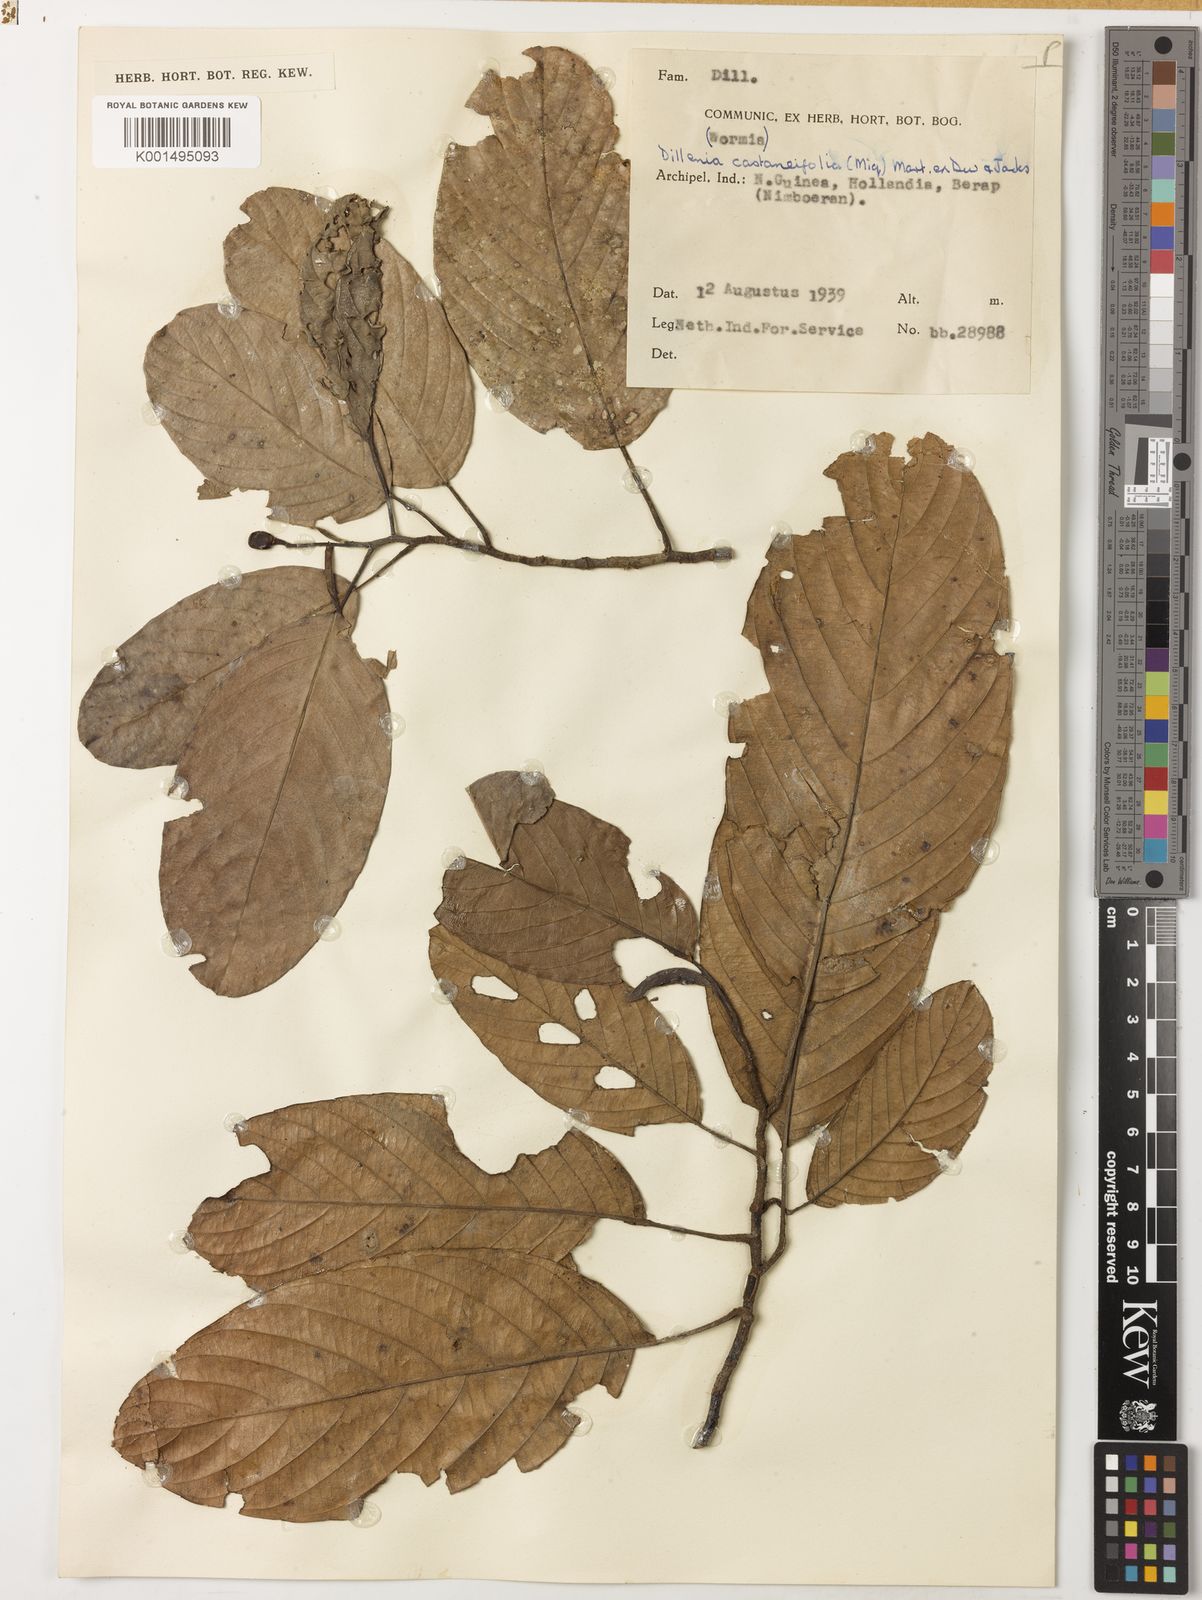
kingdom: Plantae
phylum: Tracheophyta
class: Magnoliopsida
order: Dilleniales
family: Dilleniaceae
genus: Dillenia
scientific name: Dillenia castaneifolia
